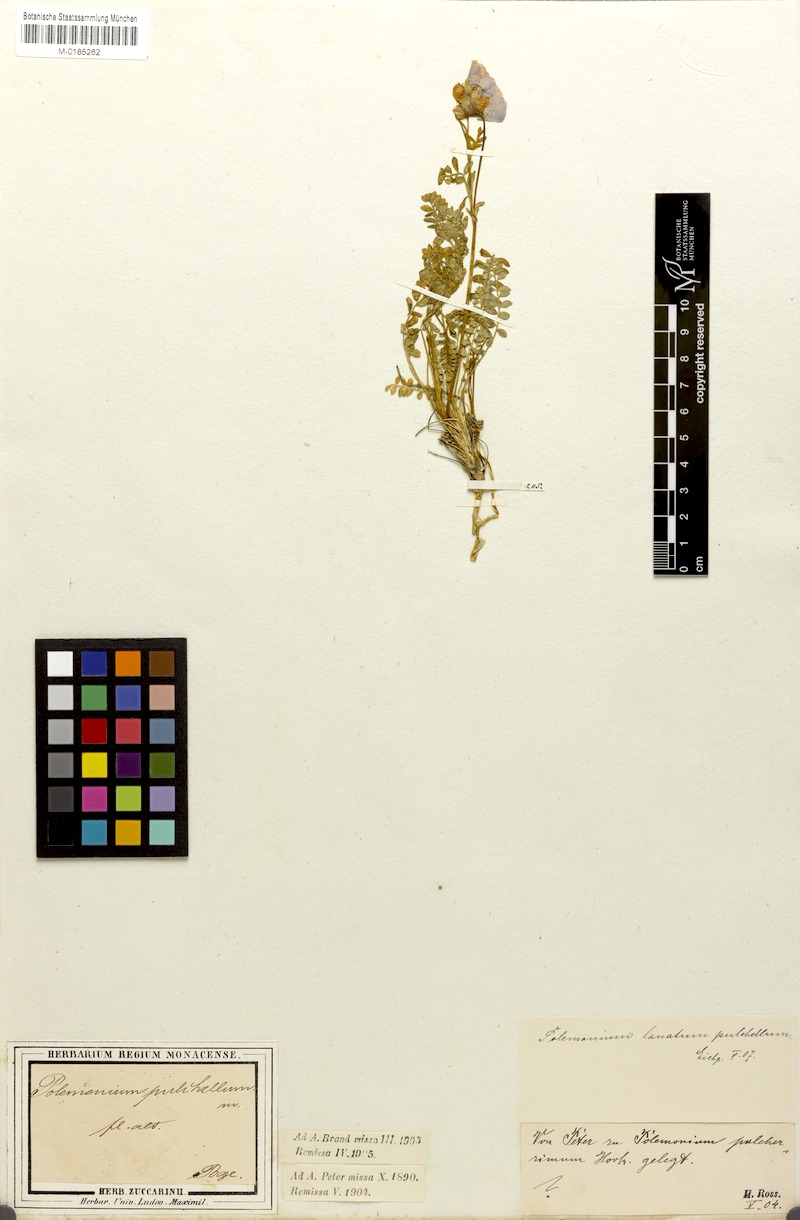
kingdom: Plantae
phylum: Tracheophyta
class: Magnoliopsida
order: Ericales
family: Polemoniaceae
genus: Polemonium
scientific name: Polemonium pulchellum
